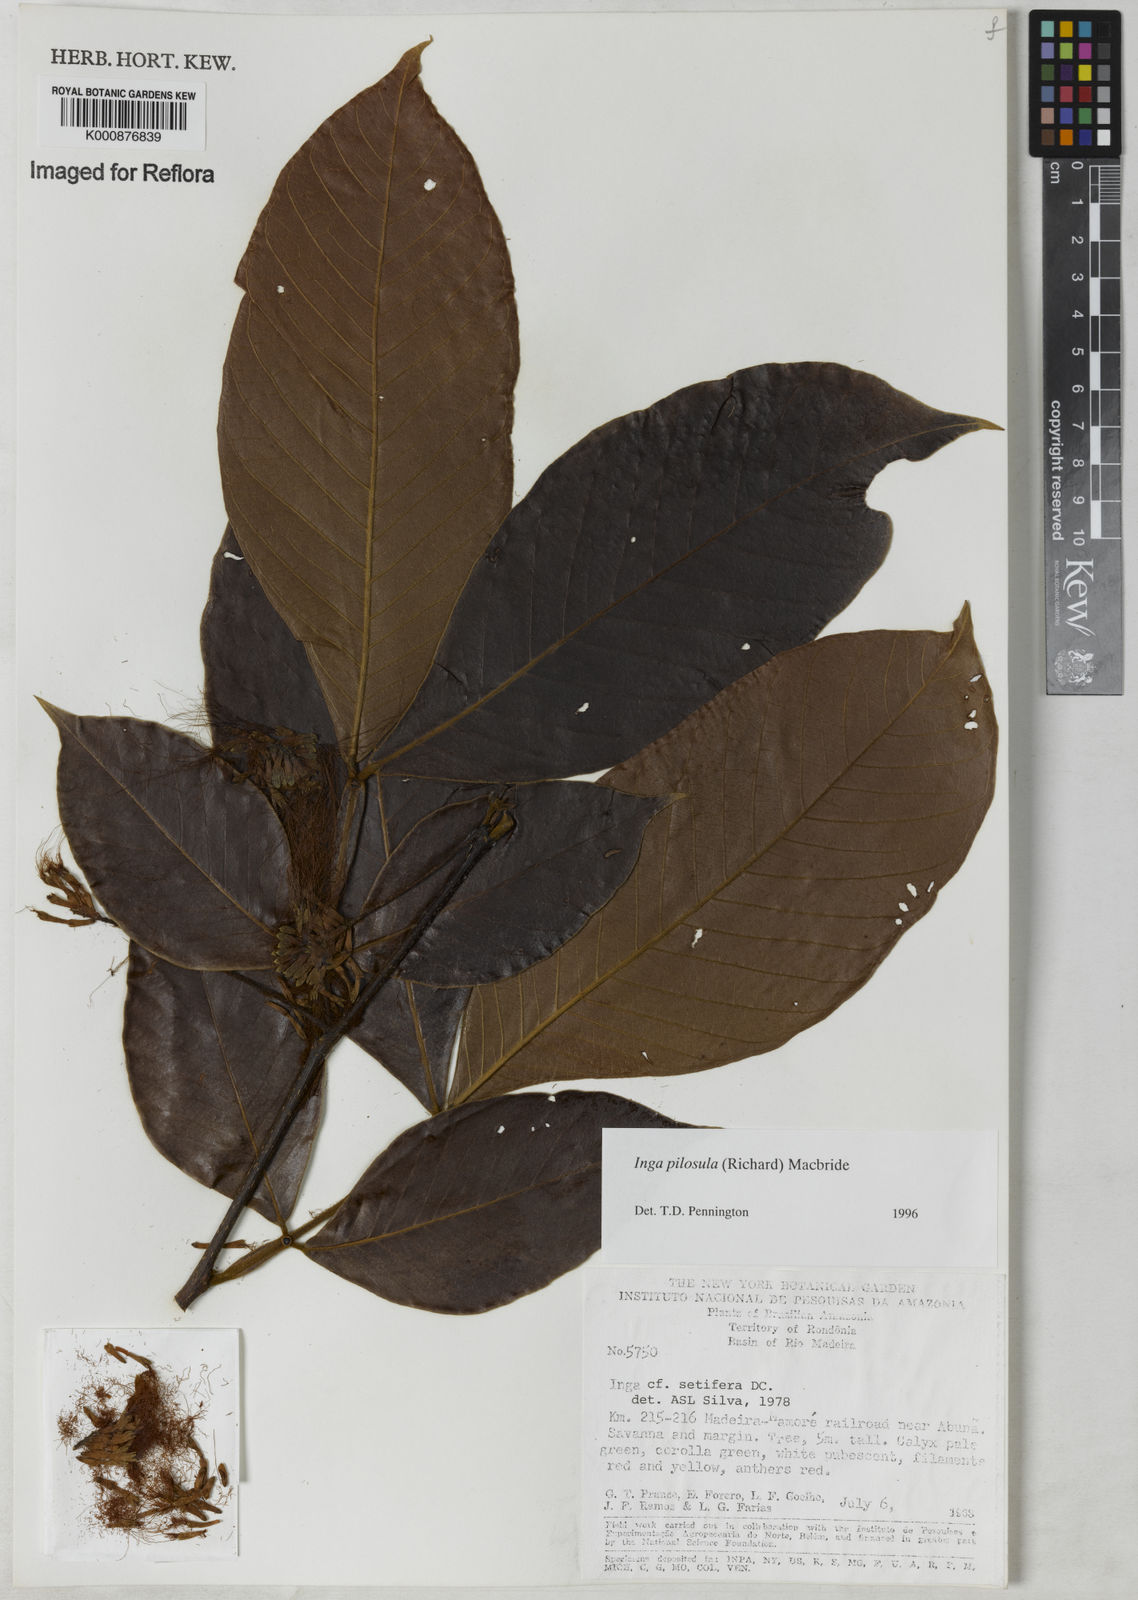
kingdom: Plantae
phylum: Tracheophyta
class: Magnoliopsida
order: Fabales
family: Fabaceae
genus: Inga
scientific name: Inga pilosula
